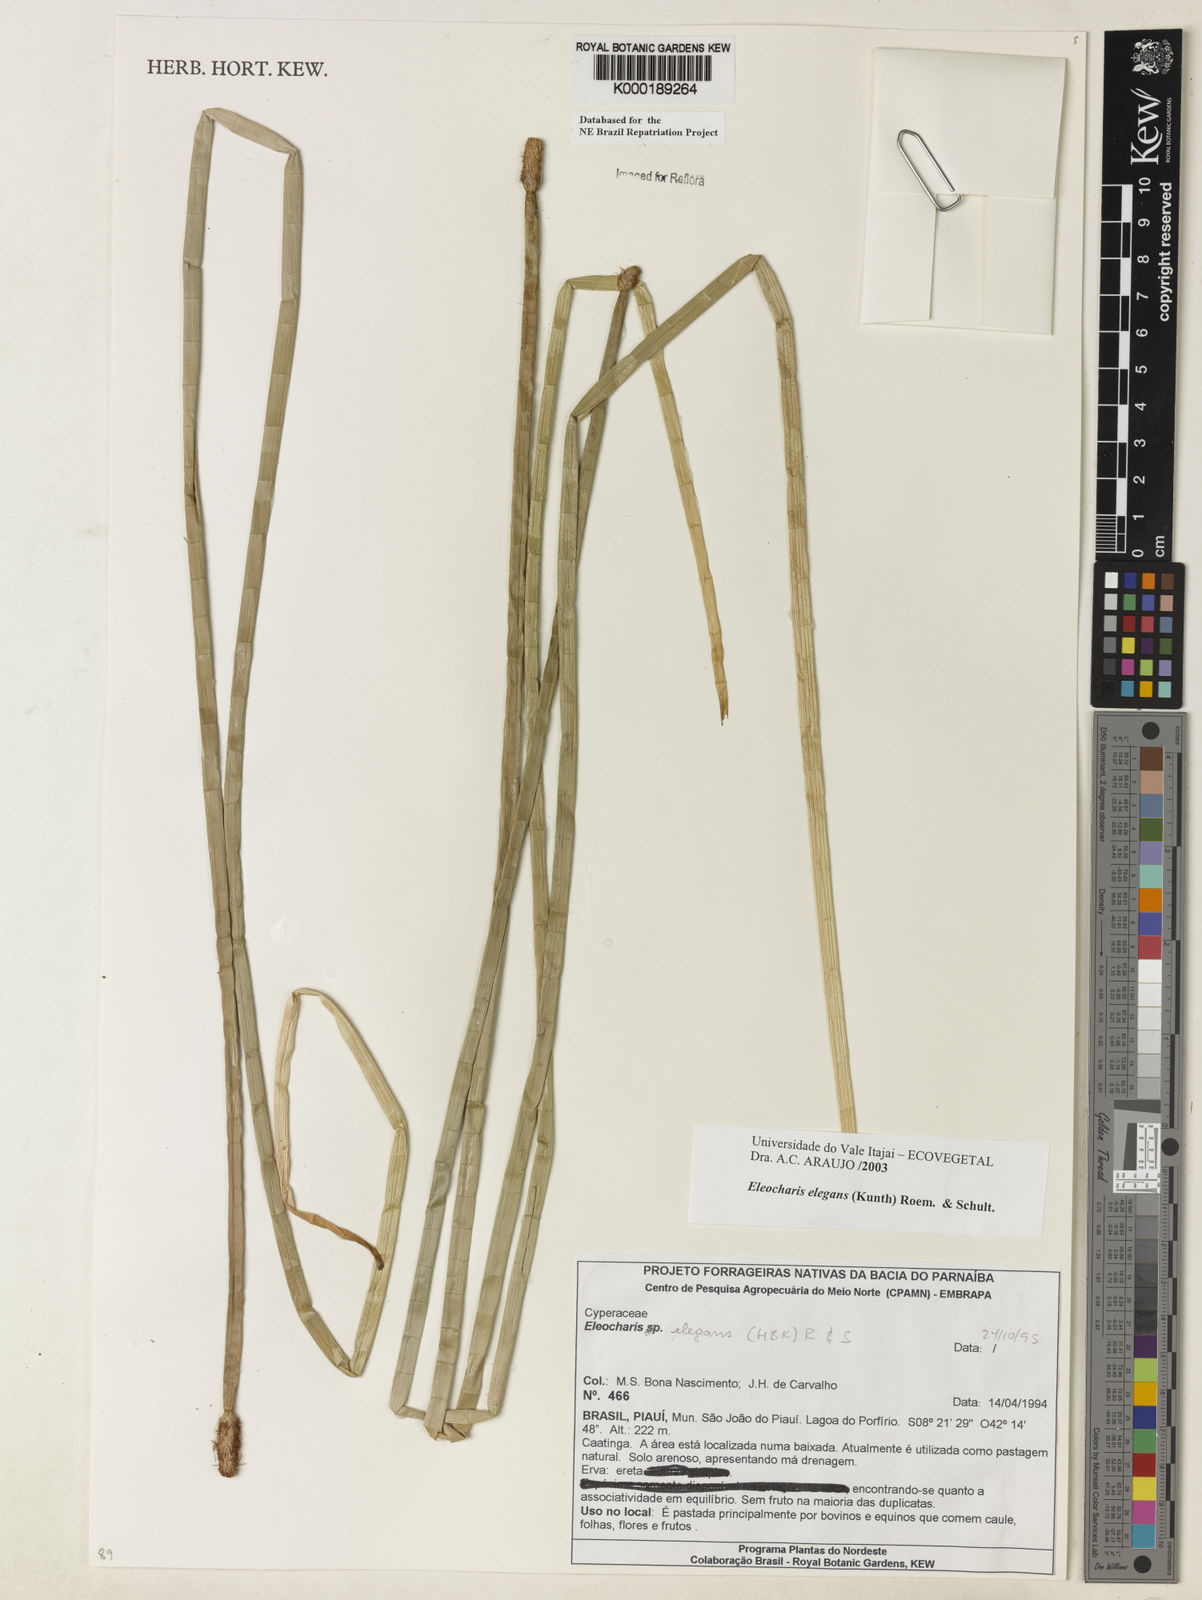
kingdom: Plantae
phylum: Tracheophyta
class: Liliopsida
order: Poales
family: Cyperaceae
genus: Eleocharis
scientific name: Eleocharis elegans
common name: Elegant spike-rush
